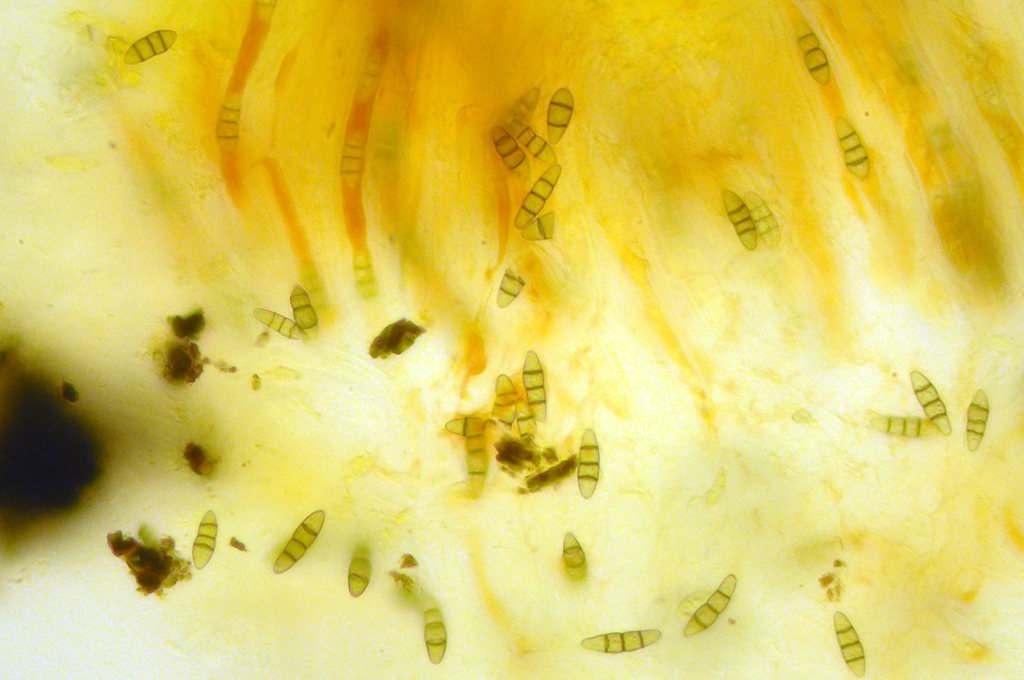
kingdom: Fungi
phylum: Ascomycota
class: Dothideomycetes
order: Pleosporales
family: Melanommataceae
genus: Melanomma
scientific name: Melanomma pulvis-pyrius
